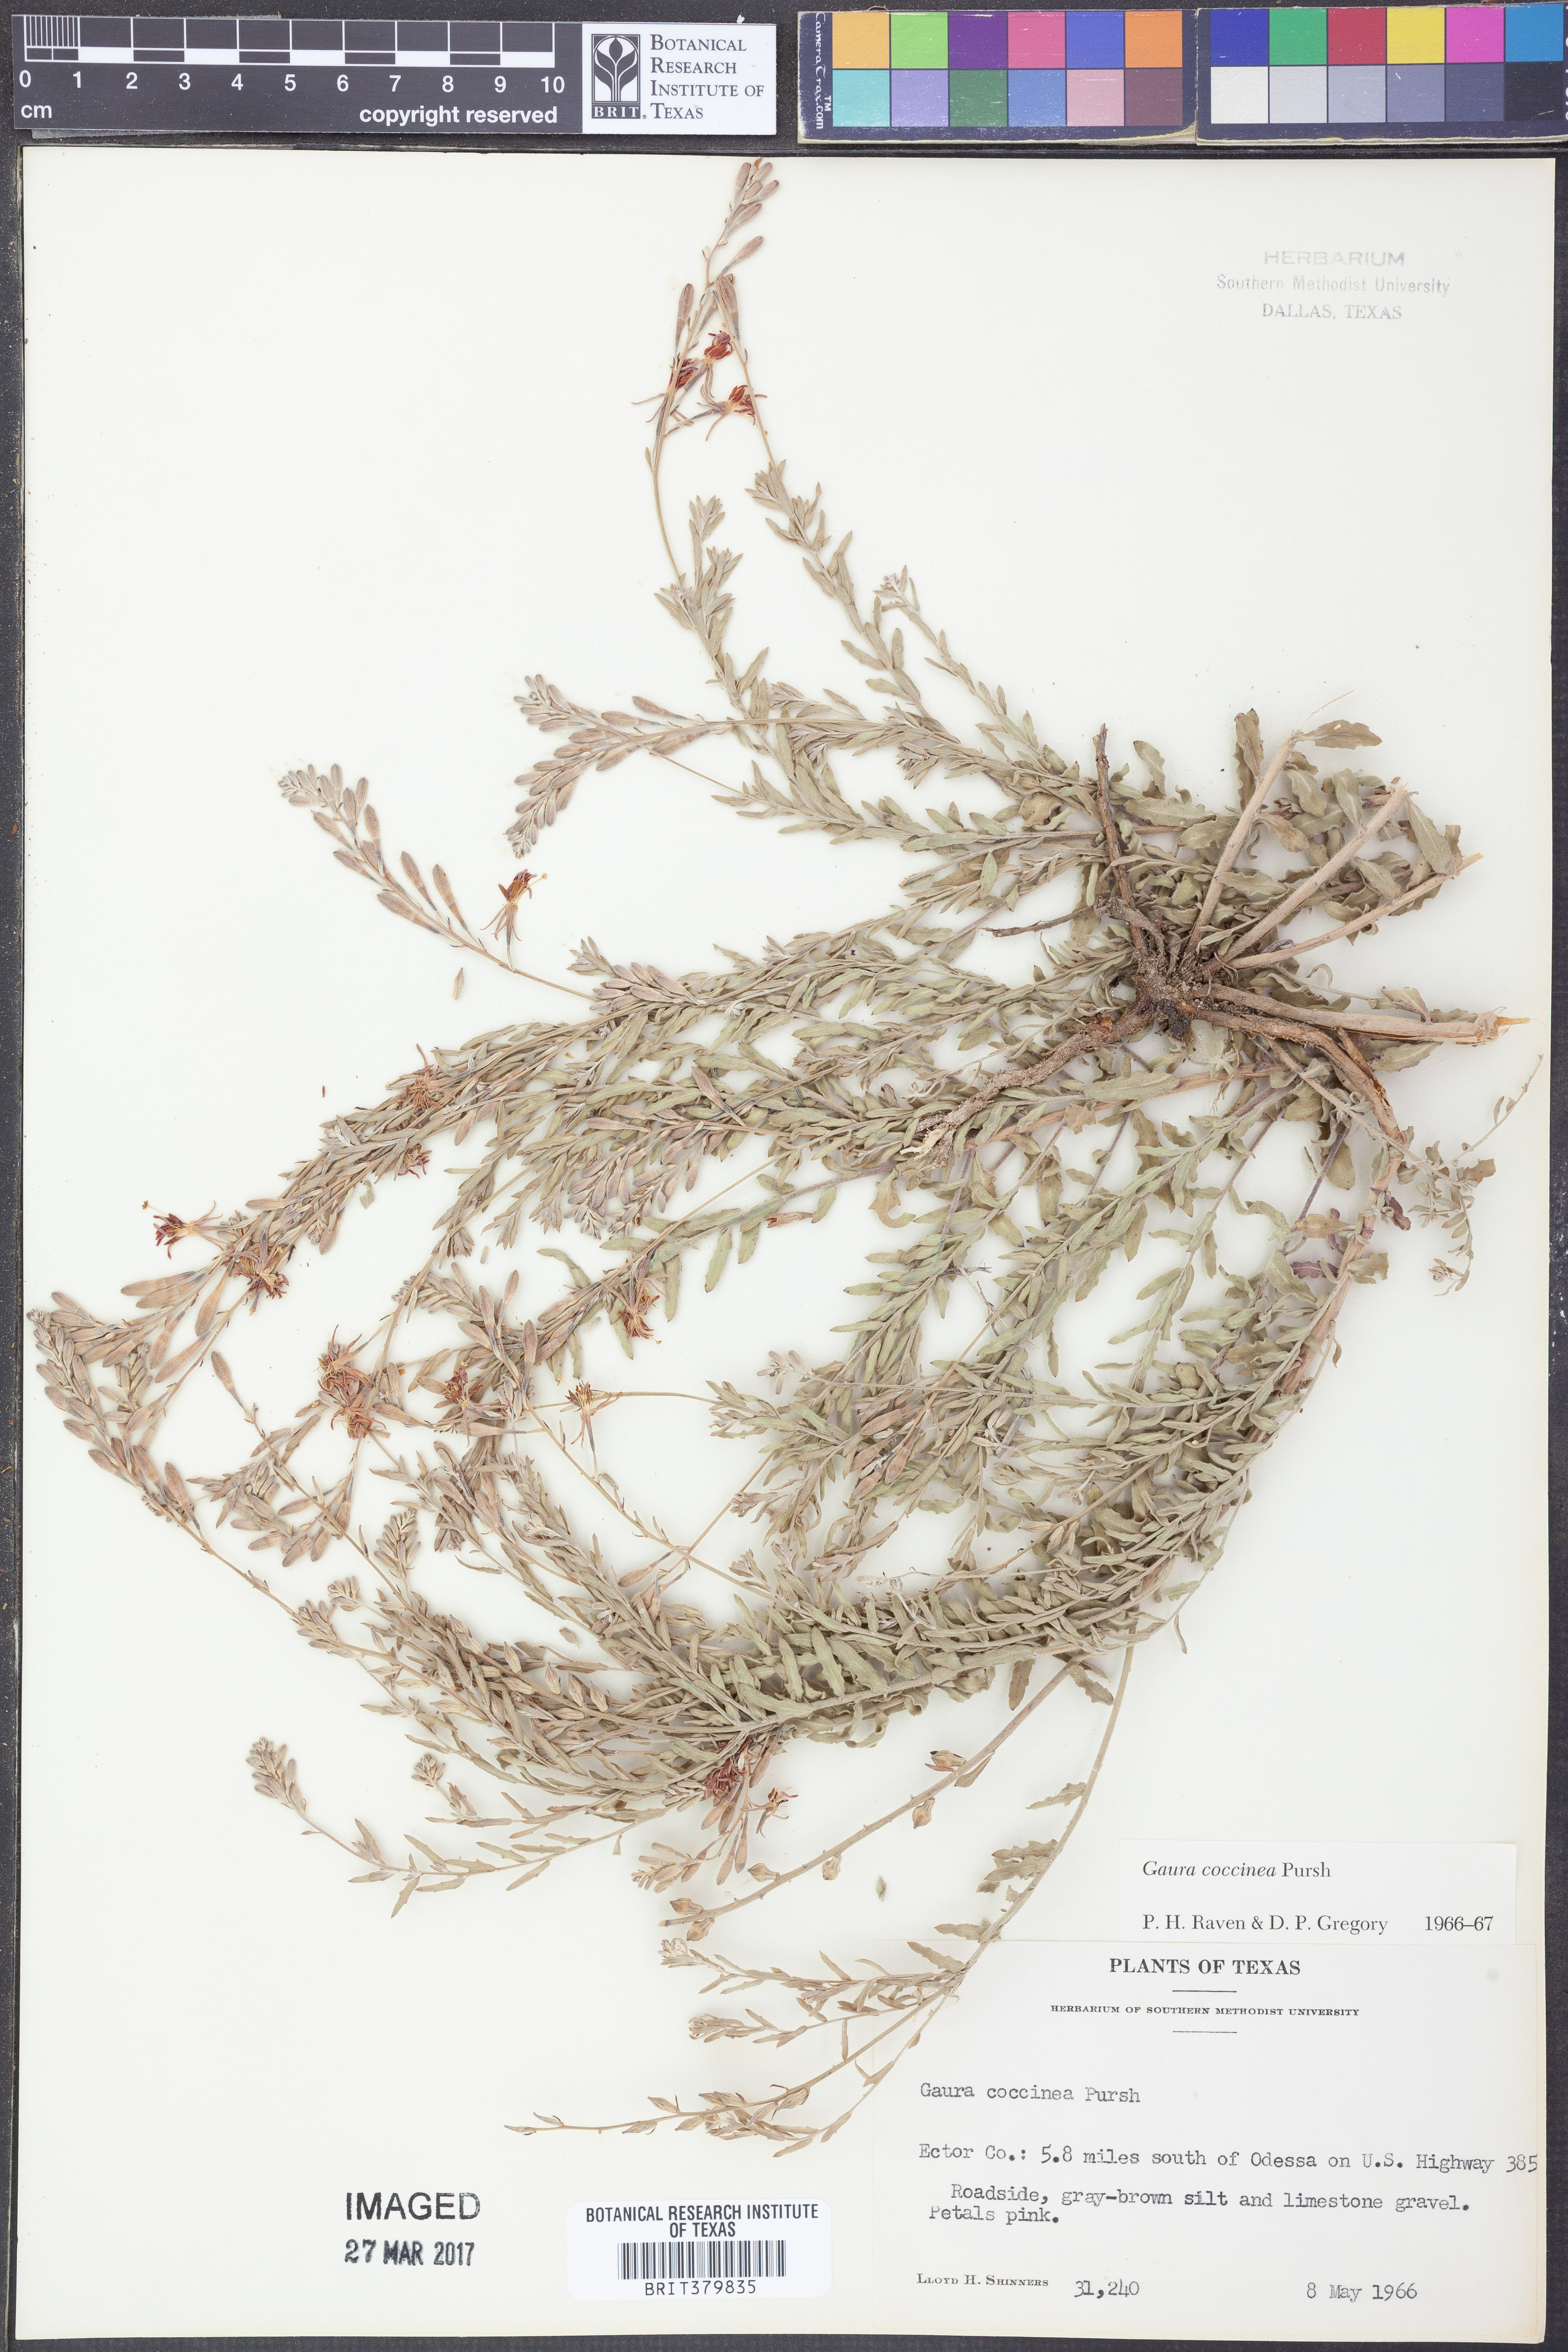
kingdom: Plantae
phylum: Tracheophyta
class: Magnoliopsida
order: Myrtales
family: Onagraceae
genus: Oenothera
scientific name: Oenothera suffrutescens
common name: Scarlet beeblossom
